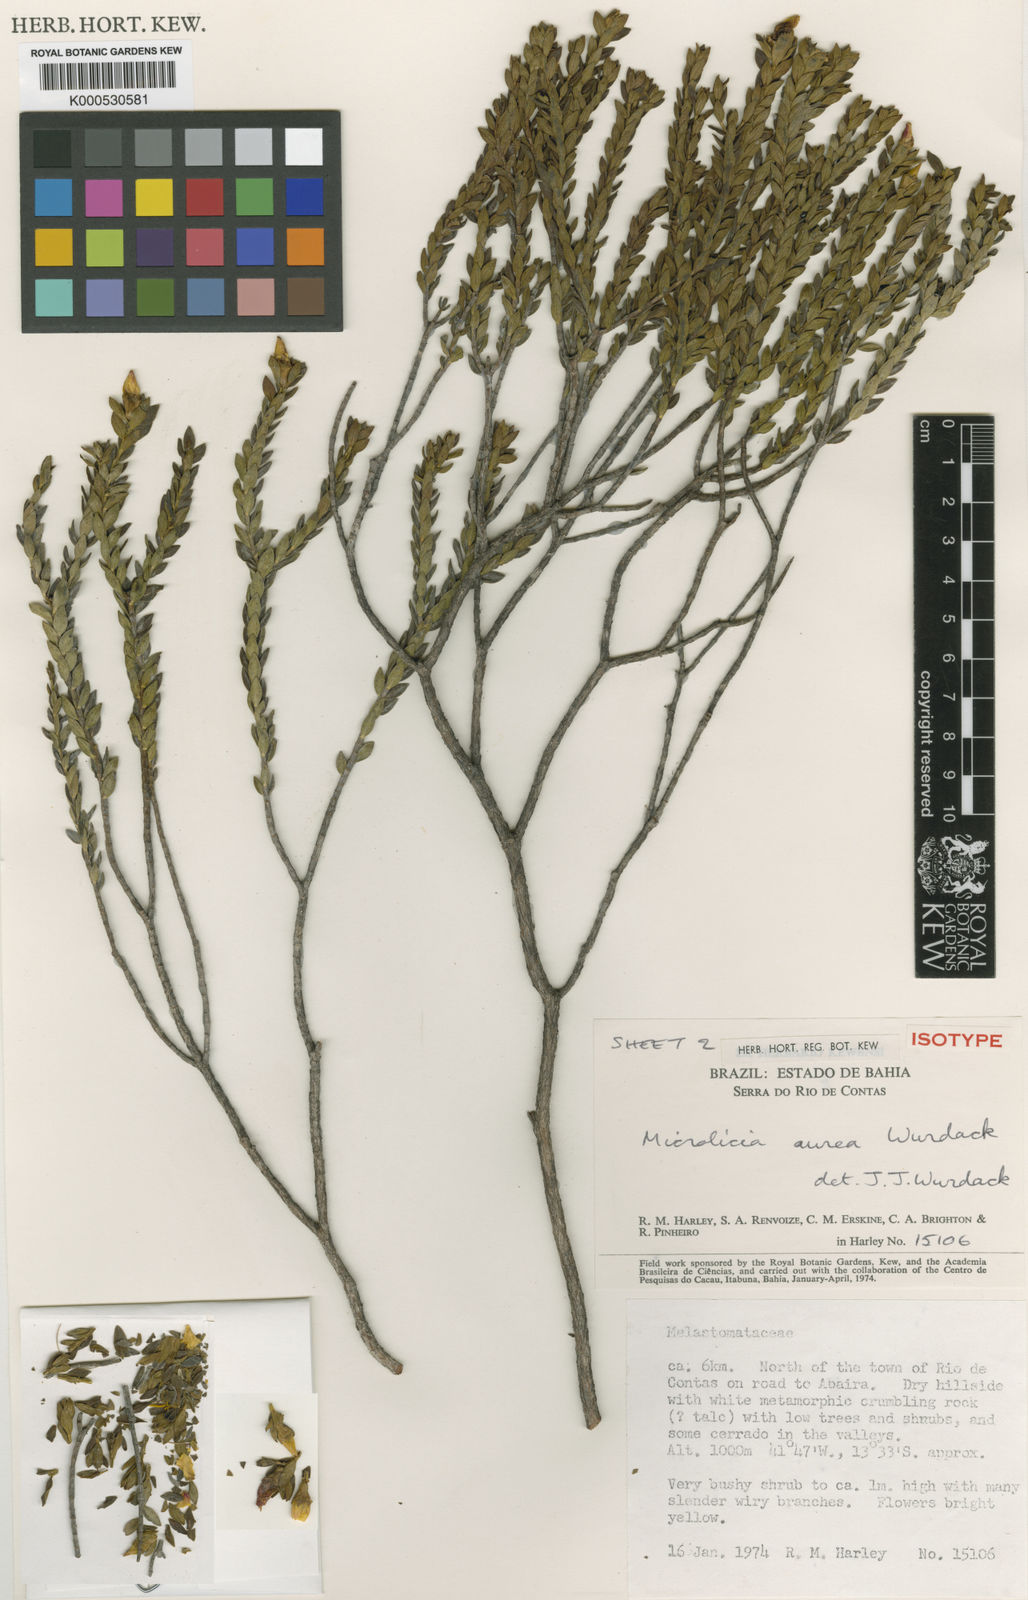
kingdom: Plantae
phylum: Tracheophyta
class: Magnoliopsida
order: Myrtales
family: Melastomataceae
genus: Microlicia
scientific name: Microlicia aurea
